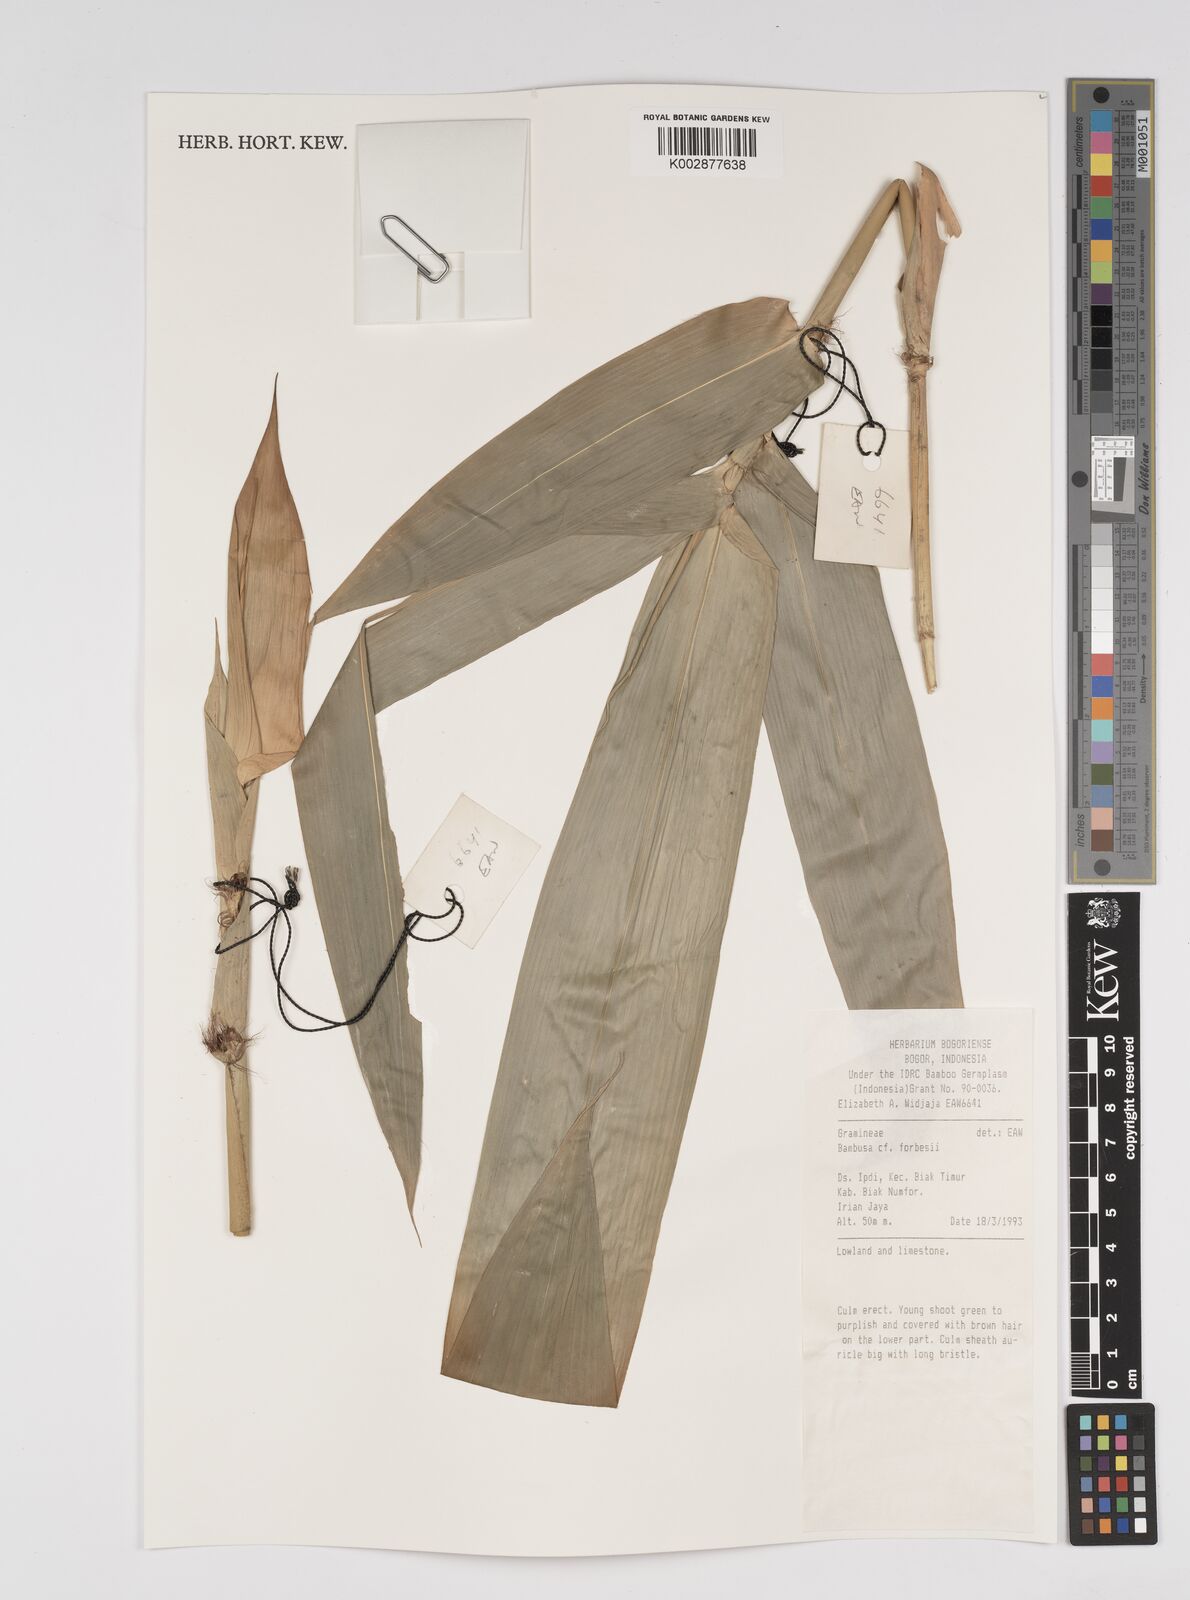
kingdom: Plantae
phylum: Tracheophyta
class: Liliopsida
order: Poales
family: Poaceae
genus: Bambusa
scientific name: Bambusa bambos
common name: Indian thorny bamboo
